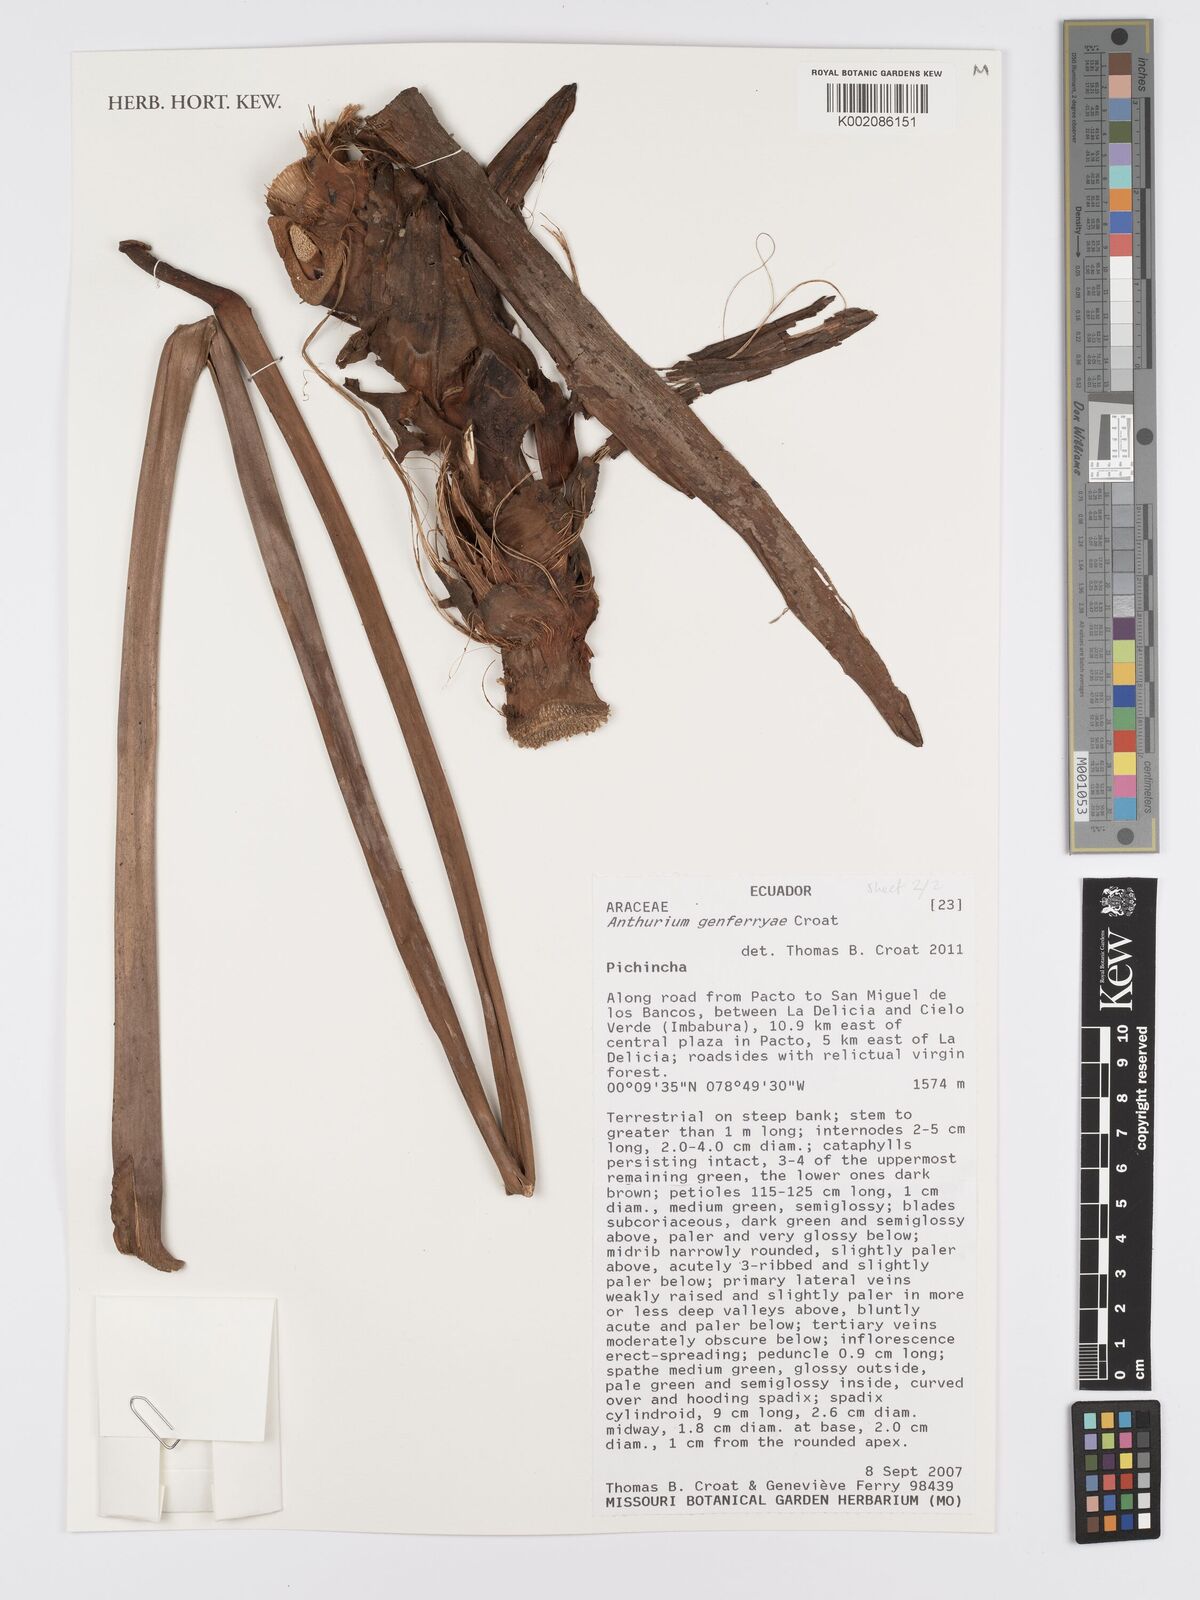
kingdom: Plantae
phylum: Tracheophyta
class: Liliopsida
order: Alismatales
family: Araceae
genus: Anthurium
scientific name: Anthurium genferryae
